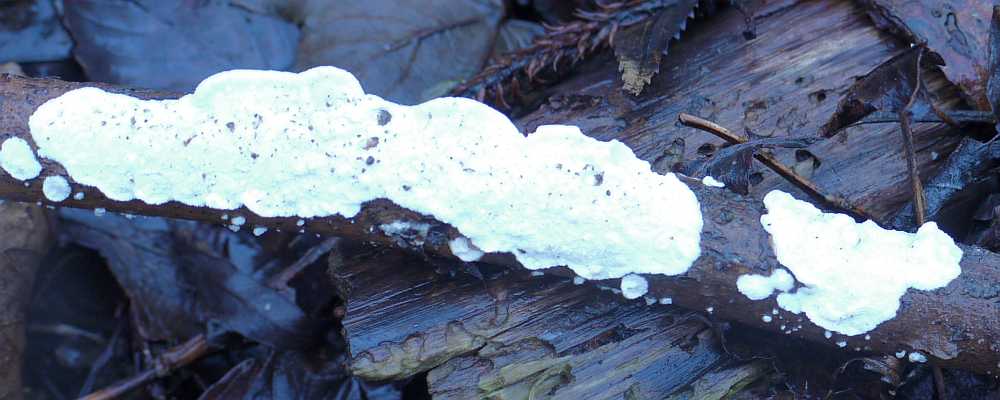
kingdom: Fungi
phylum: Basidiomycota
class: Agaricomycetes
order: Polyporales
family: Irpicaceae
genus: Byssomerulius
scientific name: Byssomerulius corium
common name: læder-åresvamp
